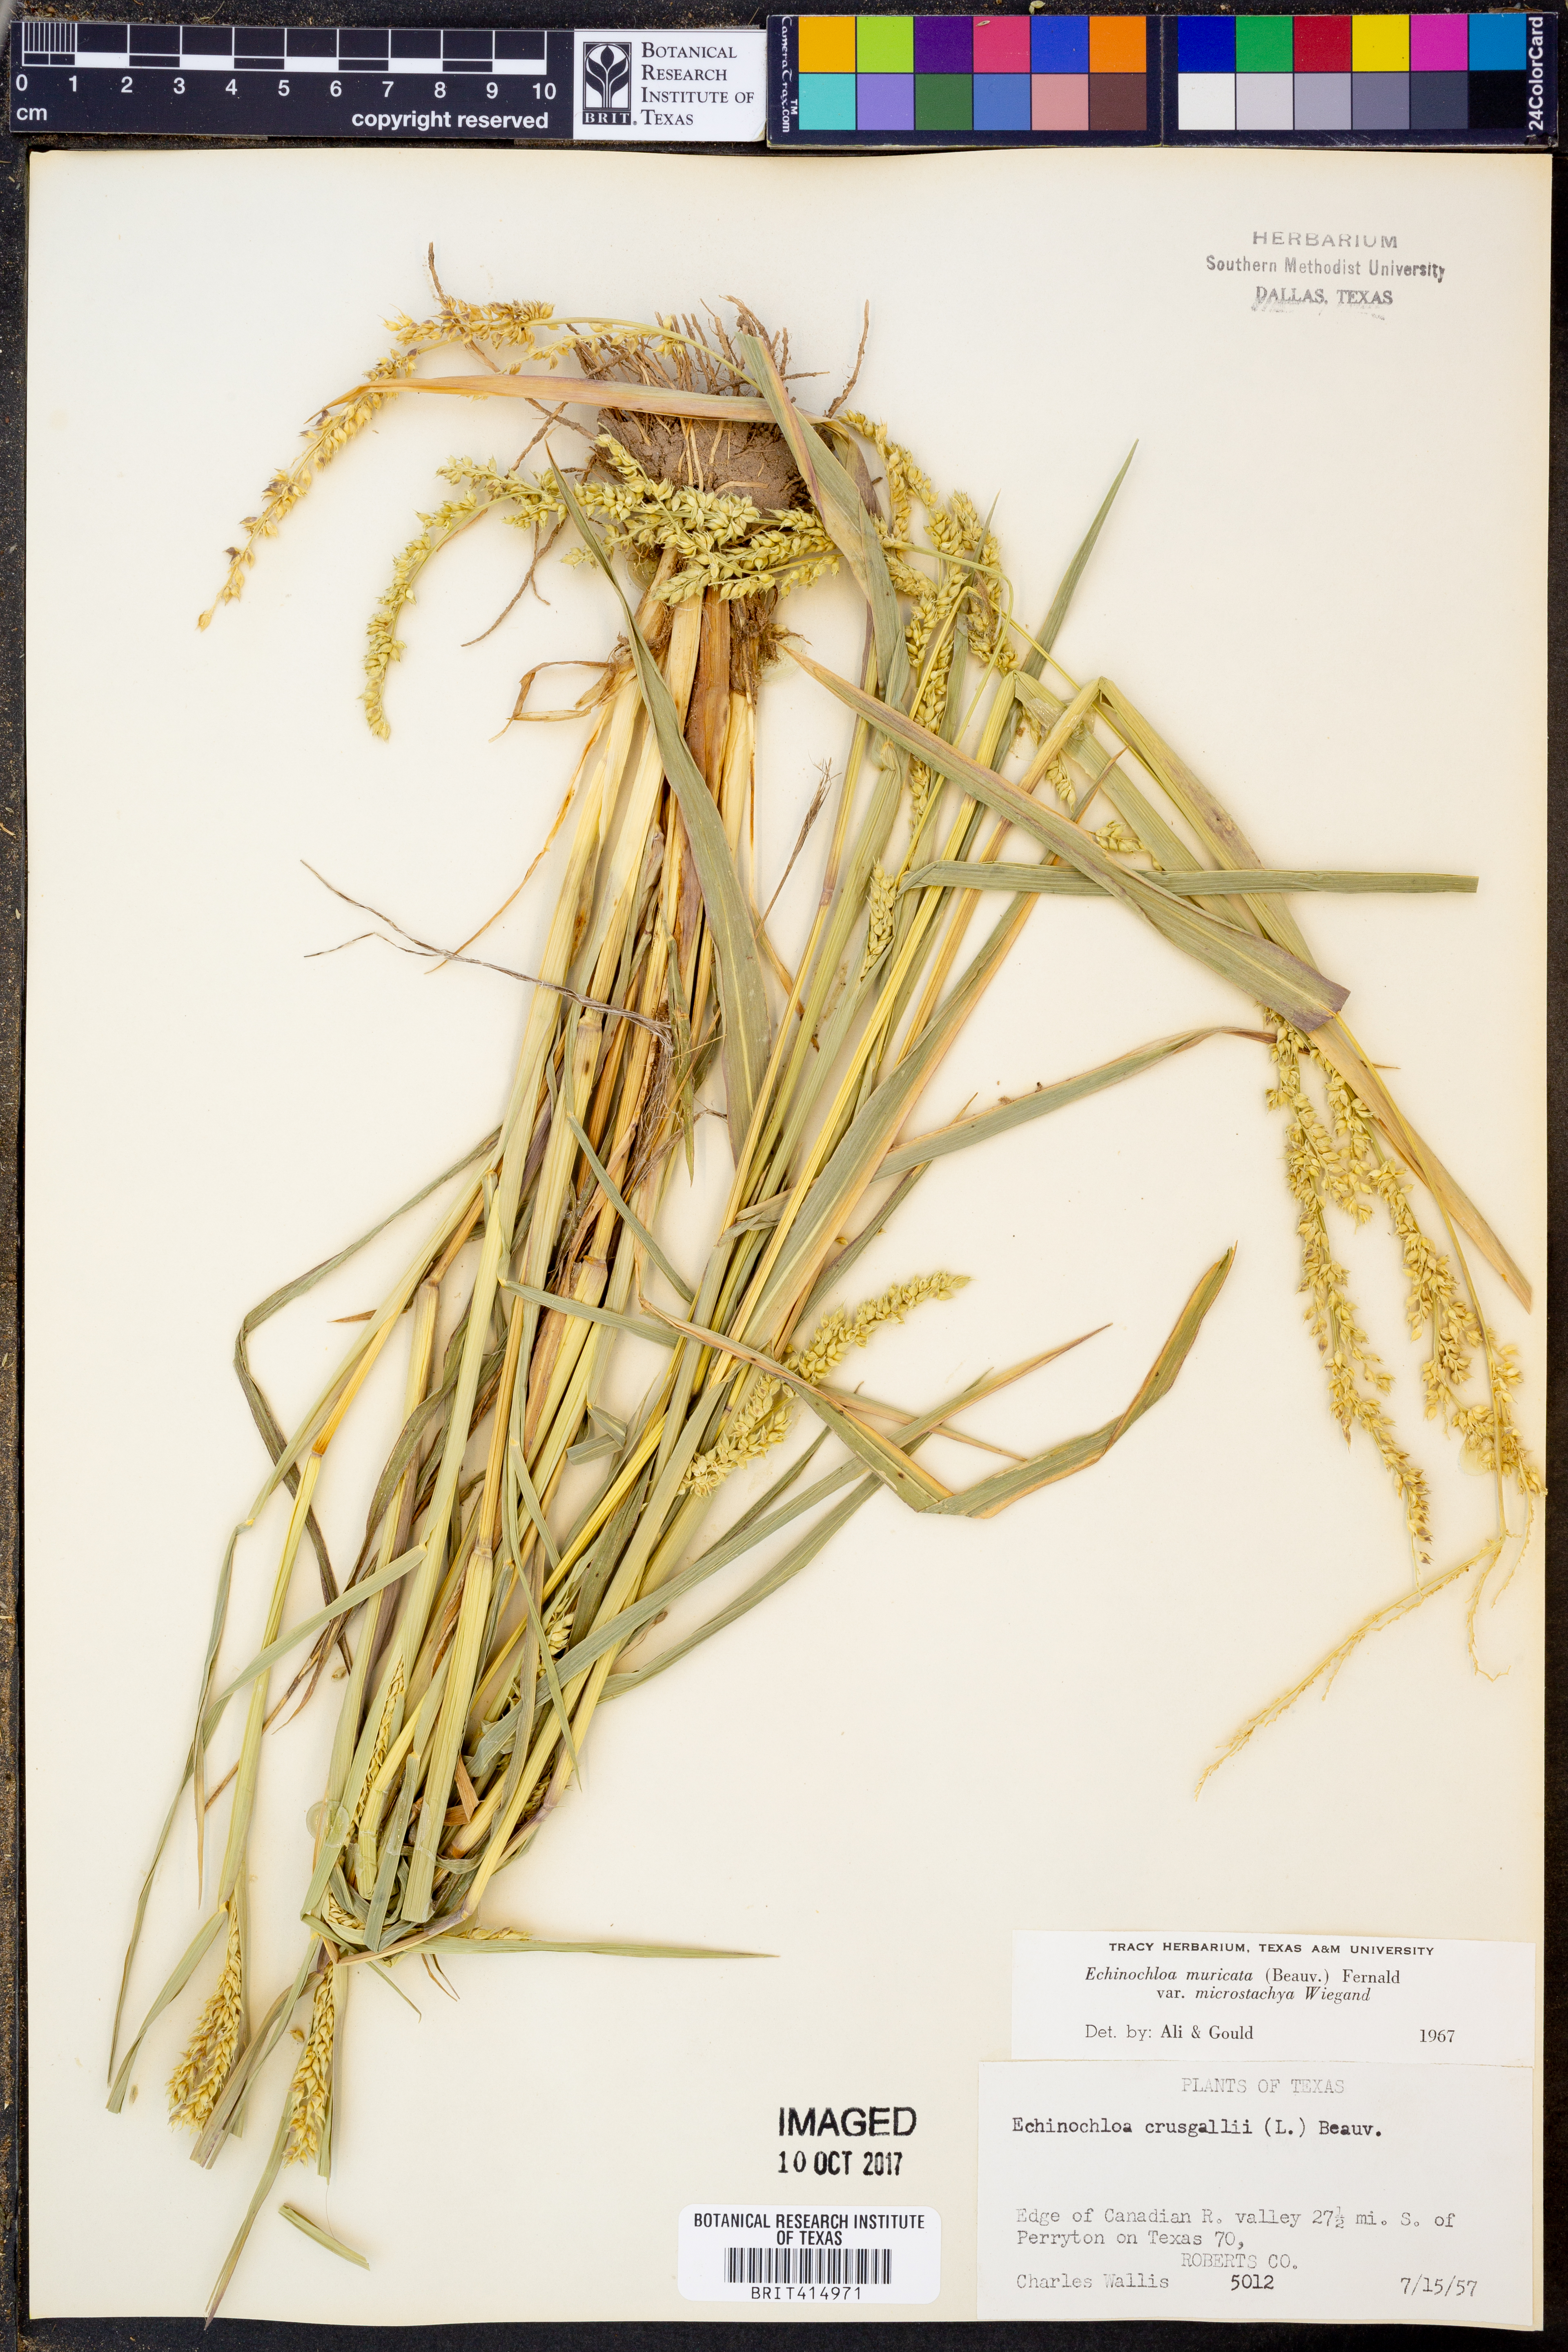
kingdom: Plantae
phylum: Tracheophyta
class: Liliopsida
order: Poales
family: Poaceae
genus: Echinochloa
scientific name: Echinochloa muricata
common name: American barnyard grass
